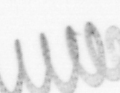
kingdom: Chromista
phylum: Ochrophyta
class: Bacillariophyceae
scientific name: Bacillariophyceae
